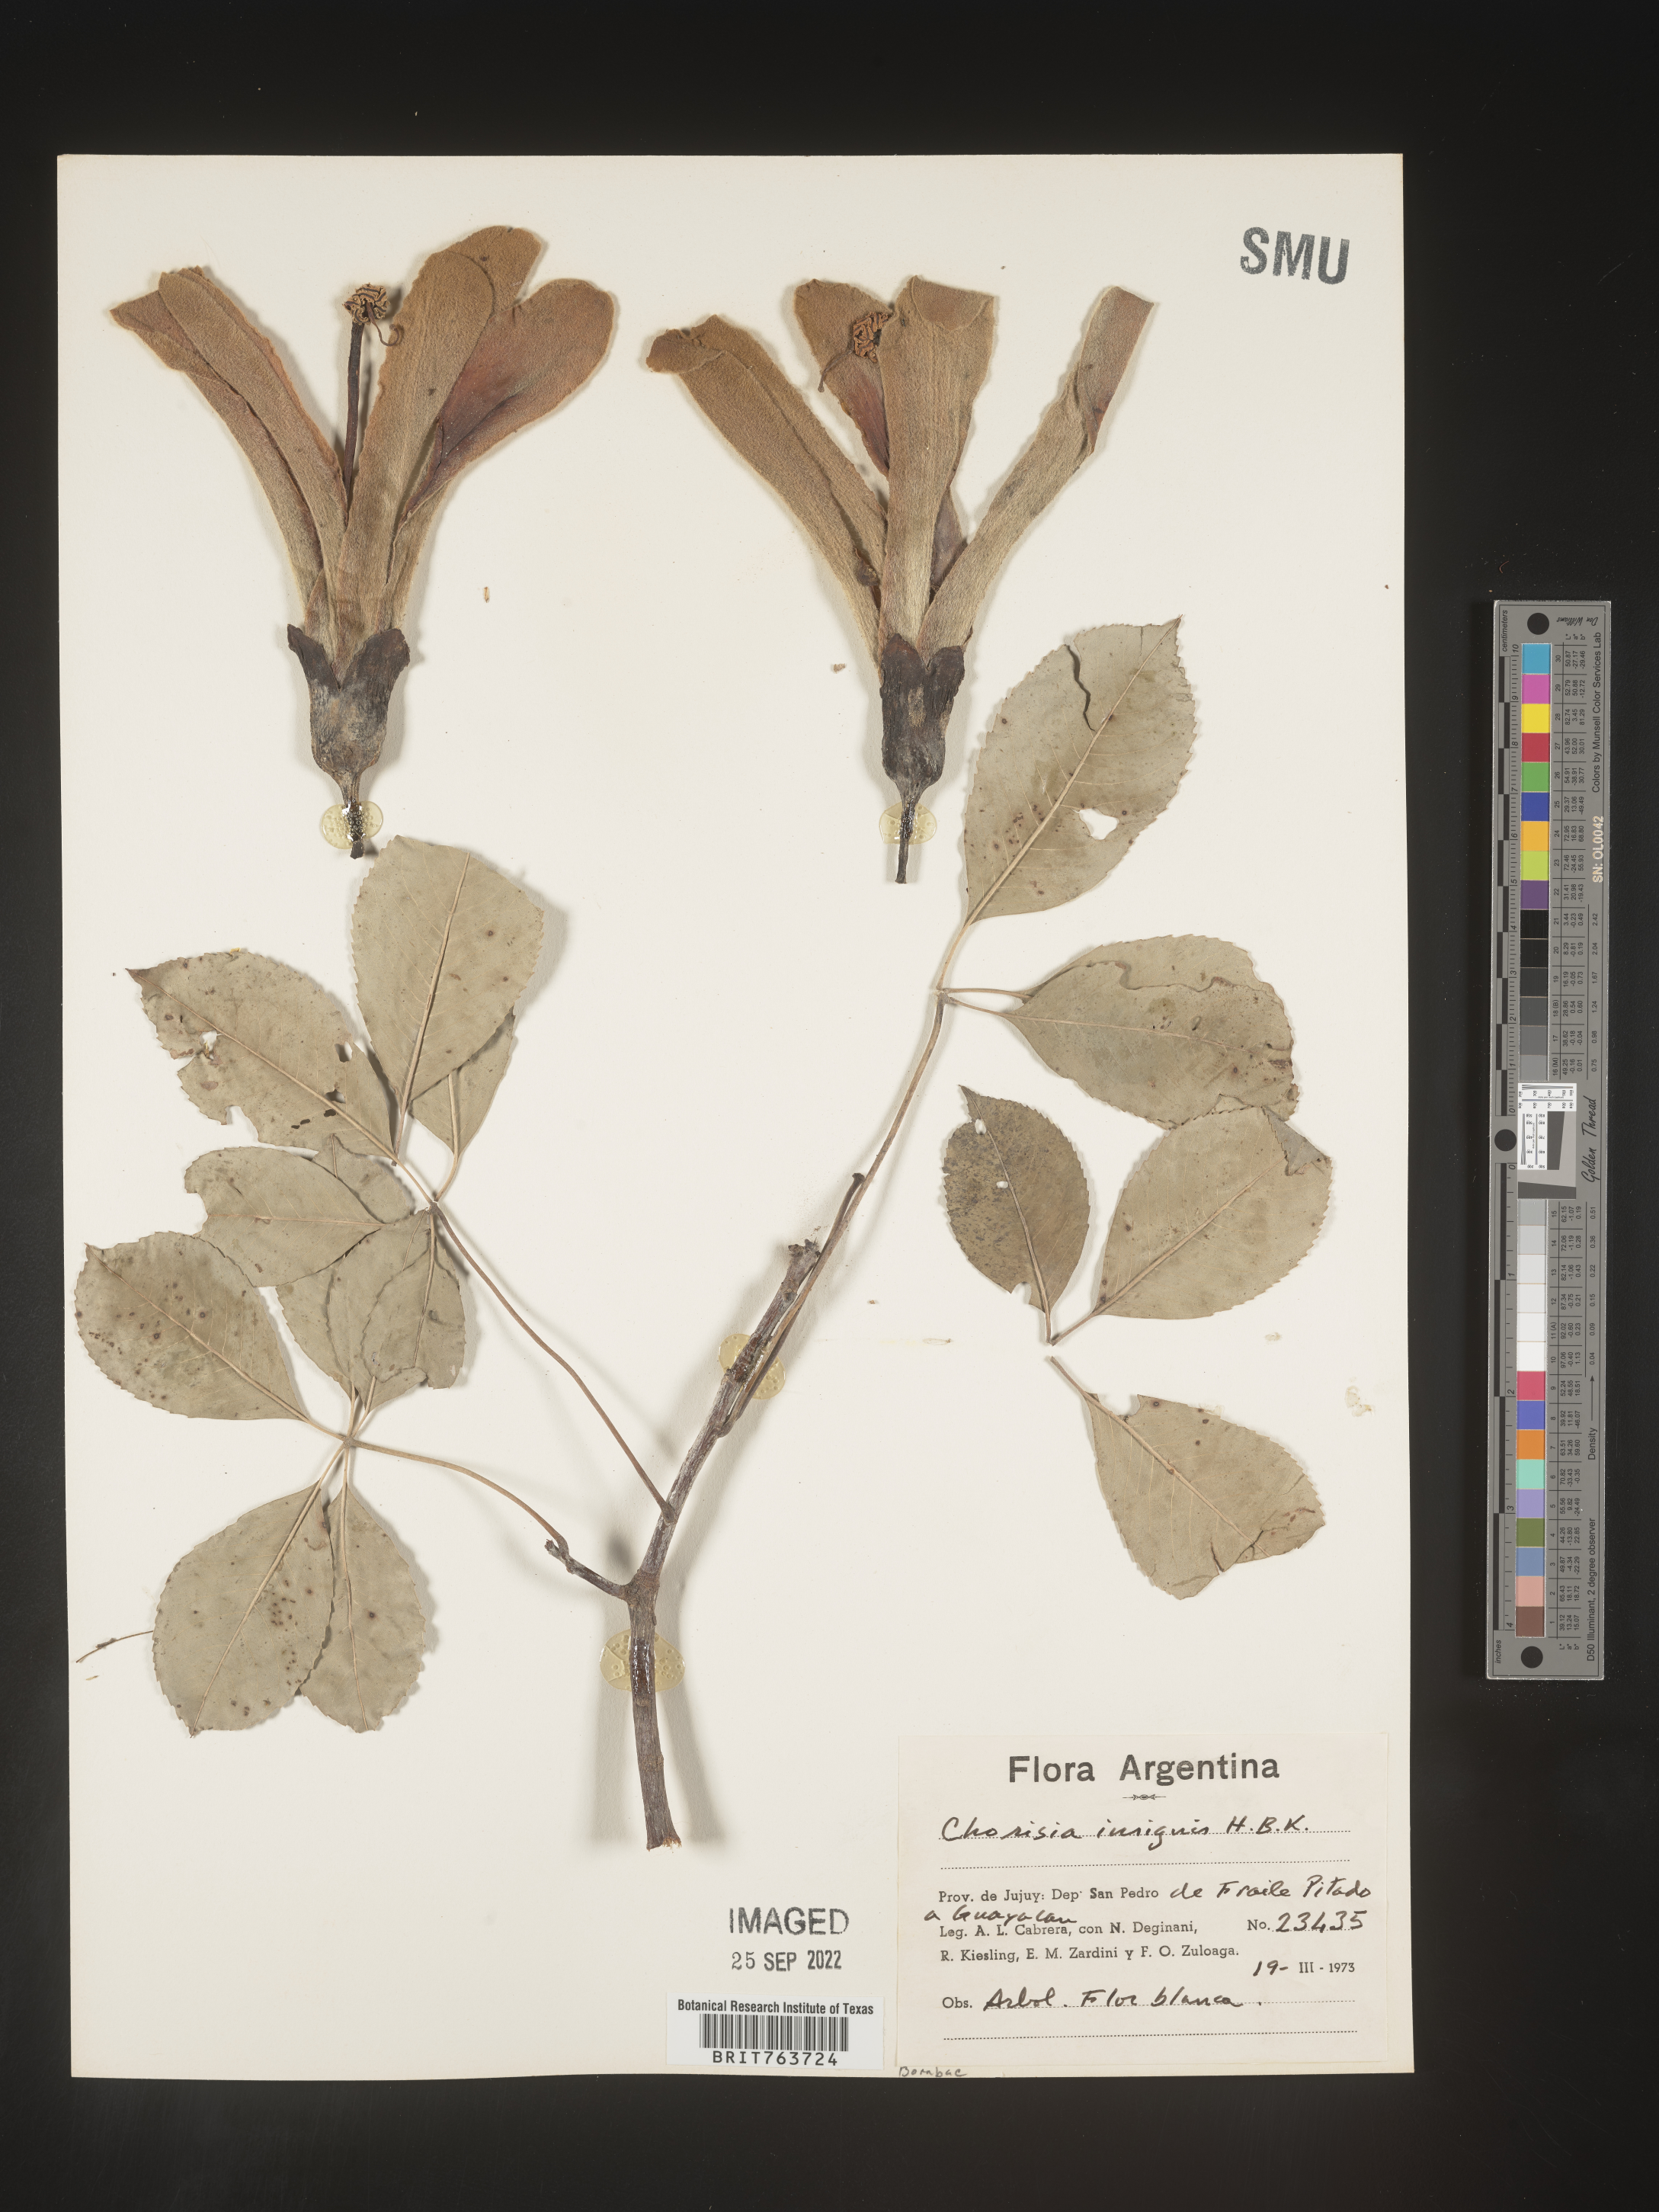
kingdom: Animalia
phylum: Arthropoda
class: Insecta
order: Blattodea
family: Ectobiidae
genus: Chorisia
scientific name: Chorisia
